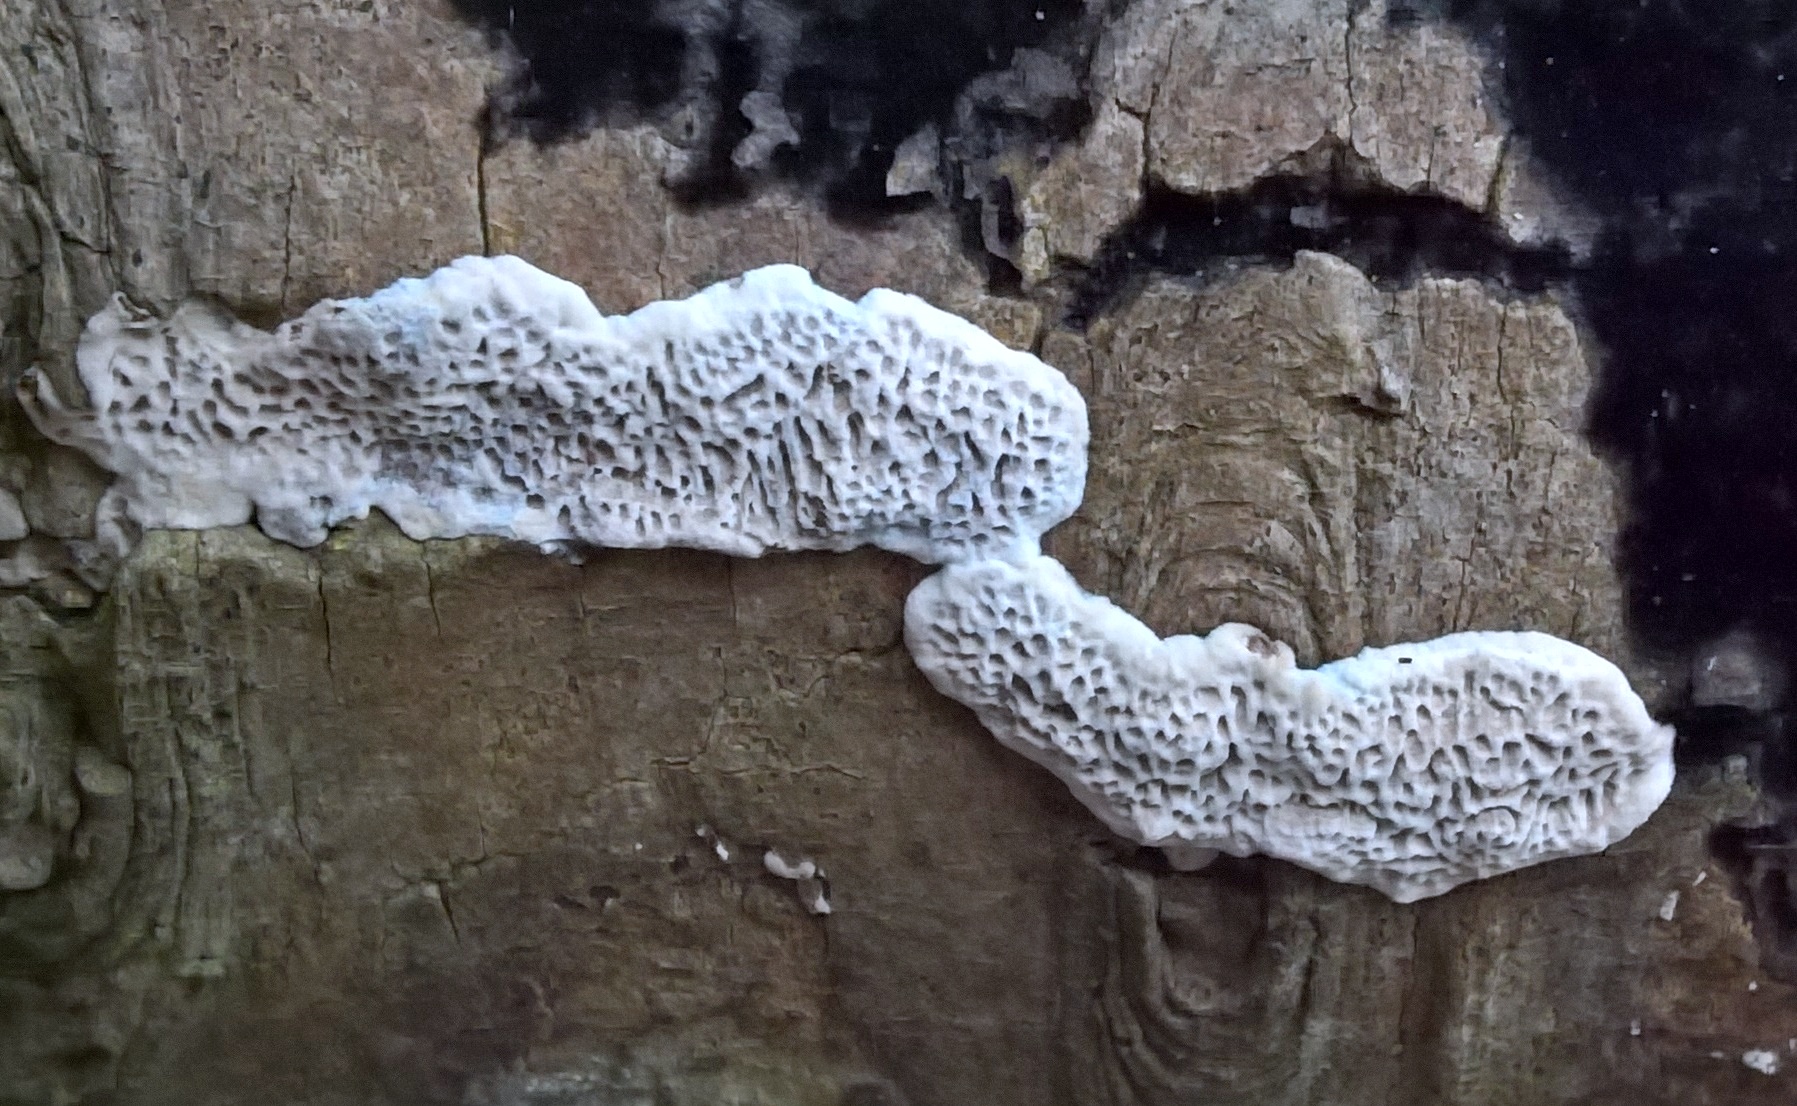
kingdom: Fungi
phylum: Basidiomycota
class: Agaricomycetes
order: Polyporales
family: Polyporaceae
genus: Podofomes
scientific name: Podofomes mollis
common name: blød begporesvamp
